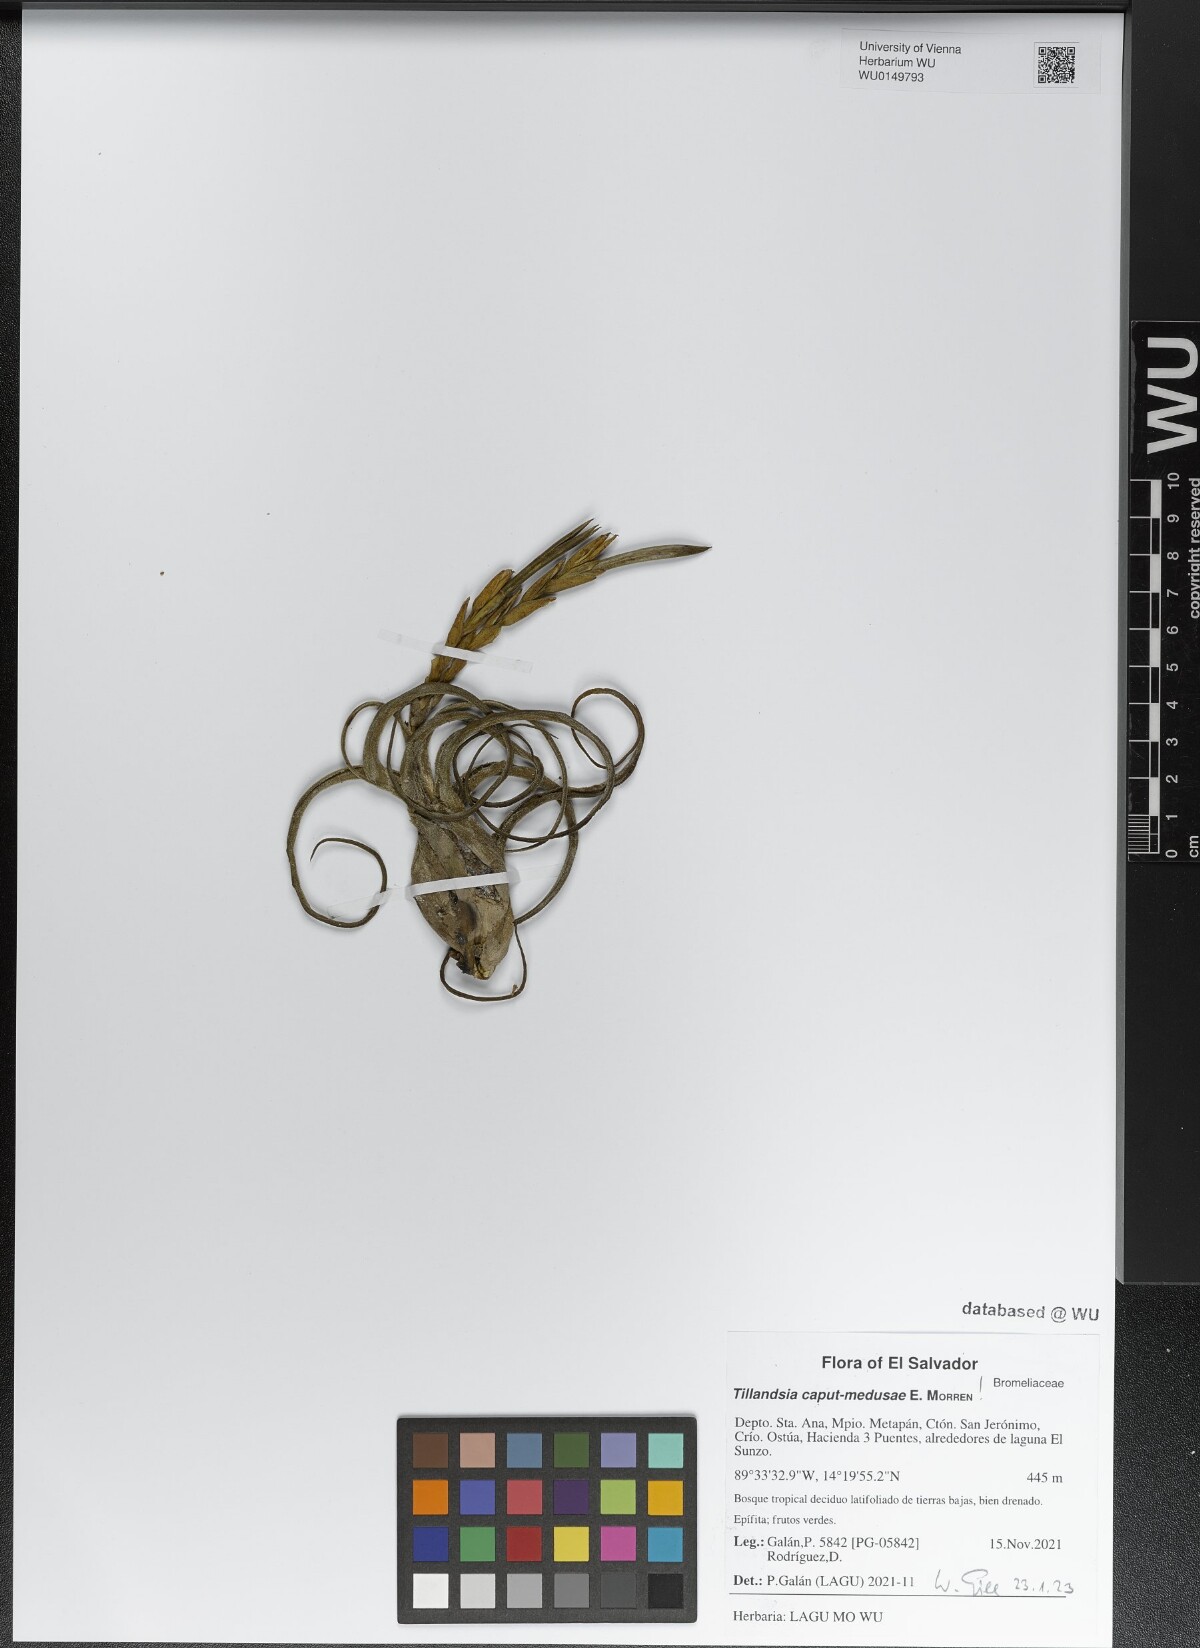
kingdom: Plantae
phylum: Tracheophyta
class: Liliopsida
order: Poales
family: Bromeliaceae
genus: Tillandsia
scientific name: Tillandsia caput-medusae
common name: Octopus plant
